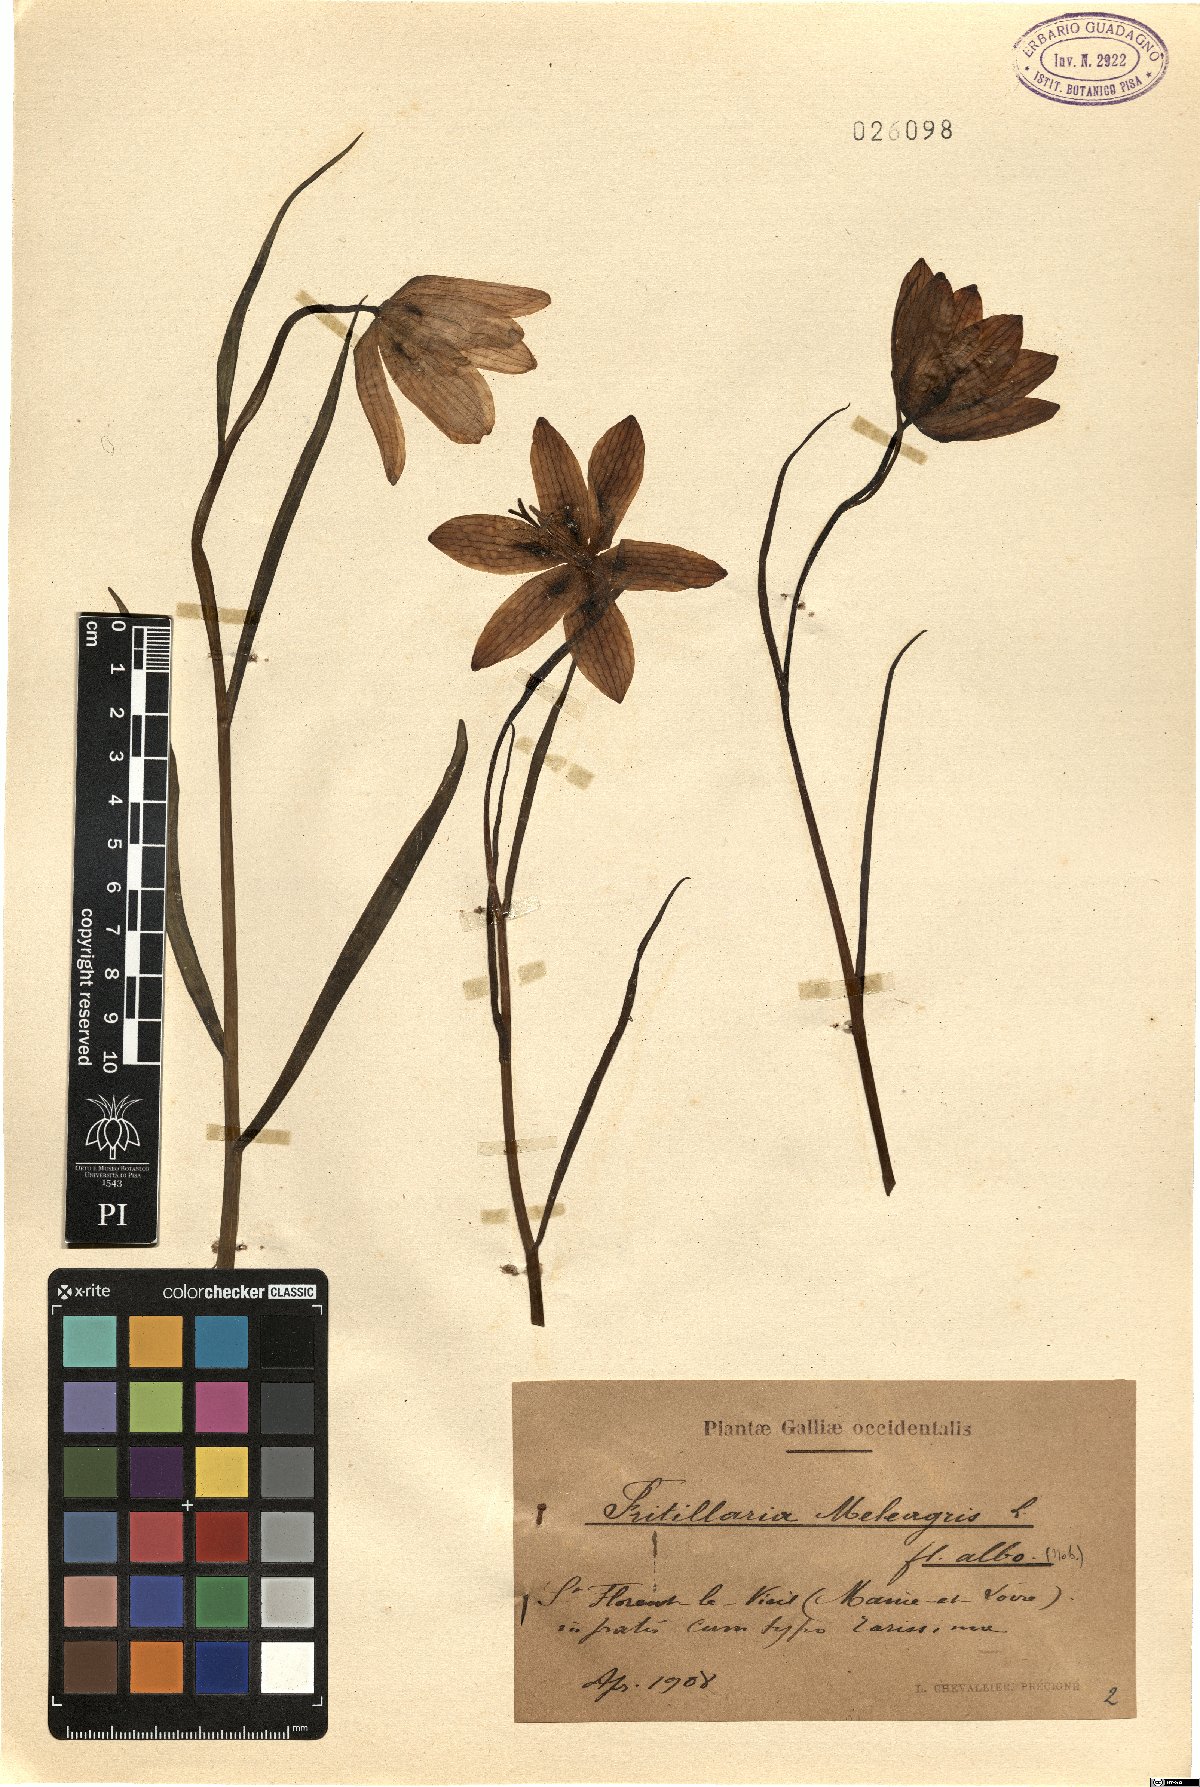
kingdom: Plantae
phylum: Tracheophyta
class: Liliopsida
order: Liliales
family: Liliaceae
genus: Fritillaria
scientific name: Fritillaria meleagris
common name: Fritillary
